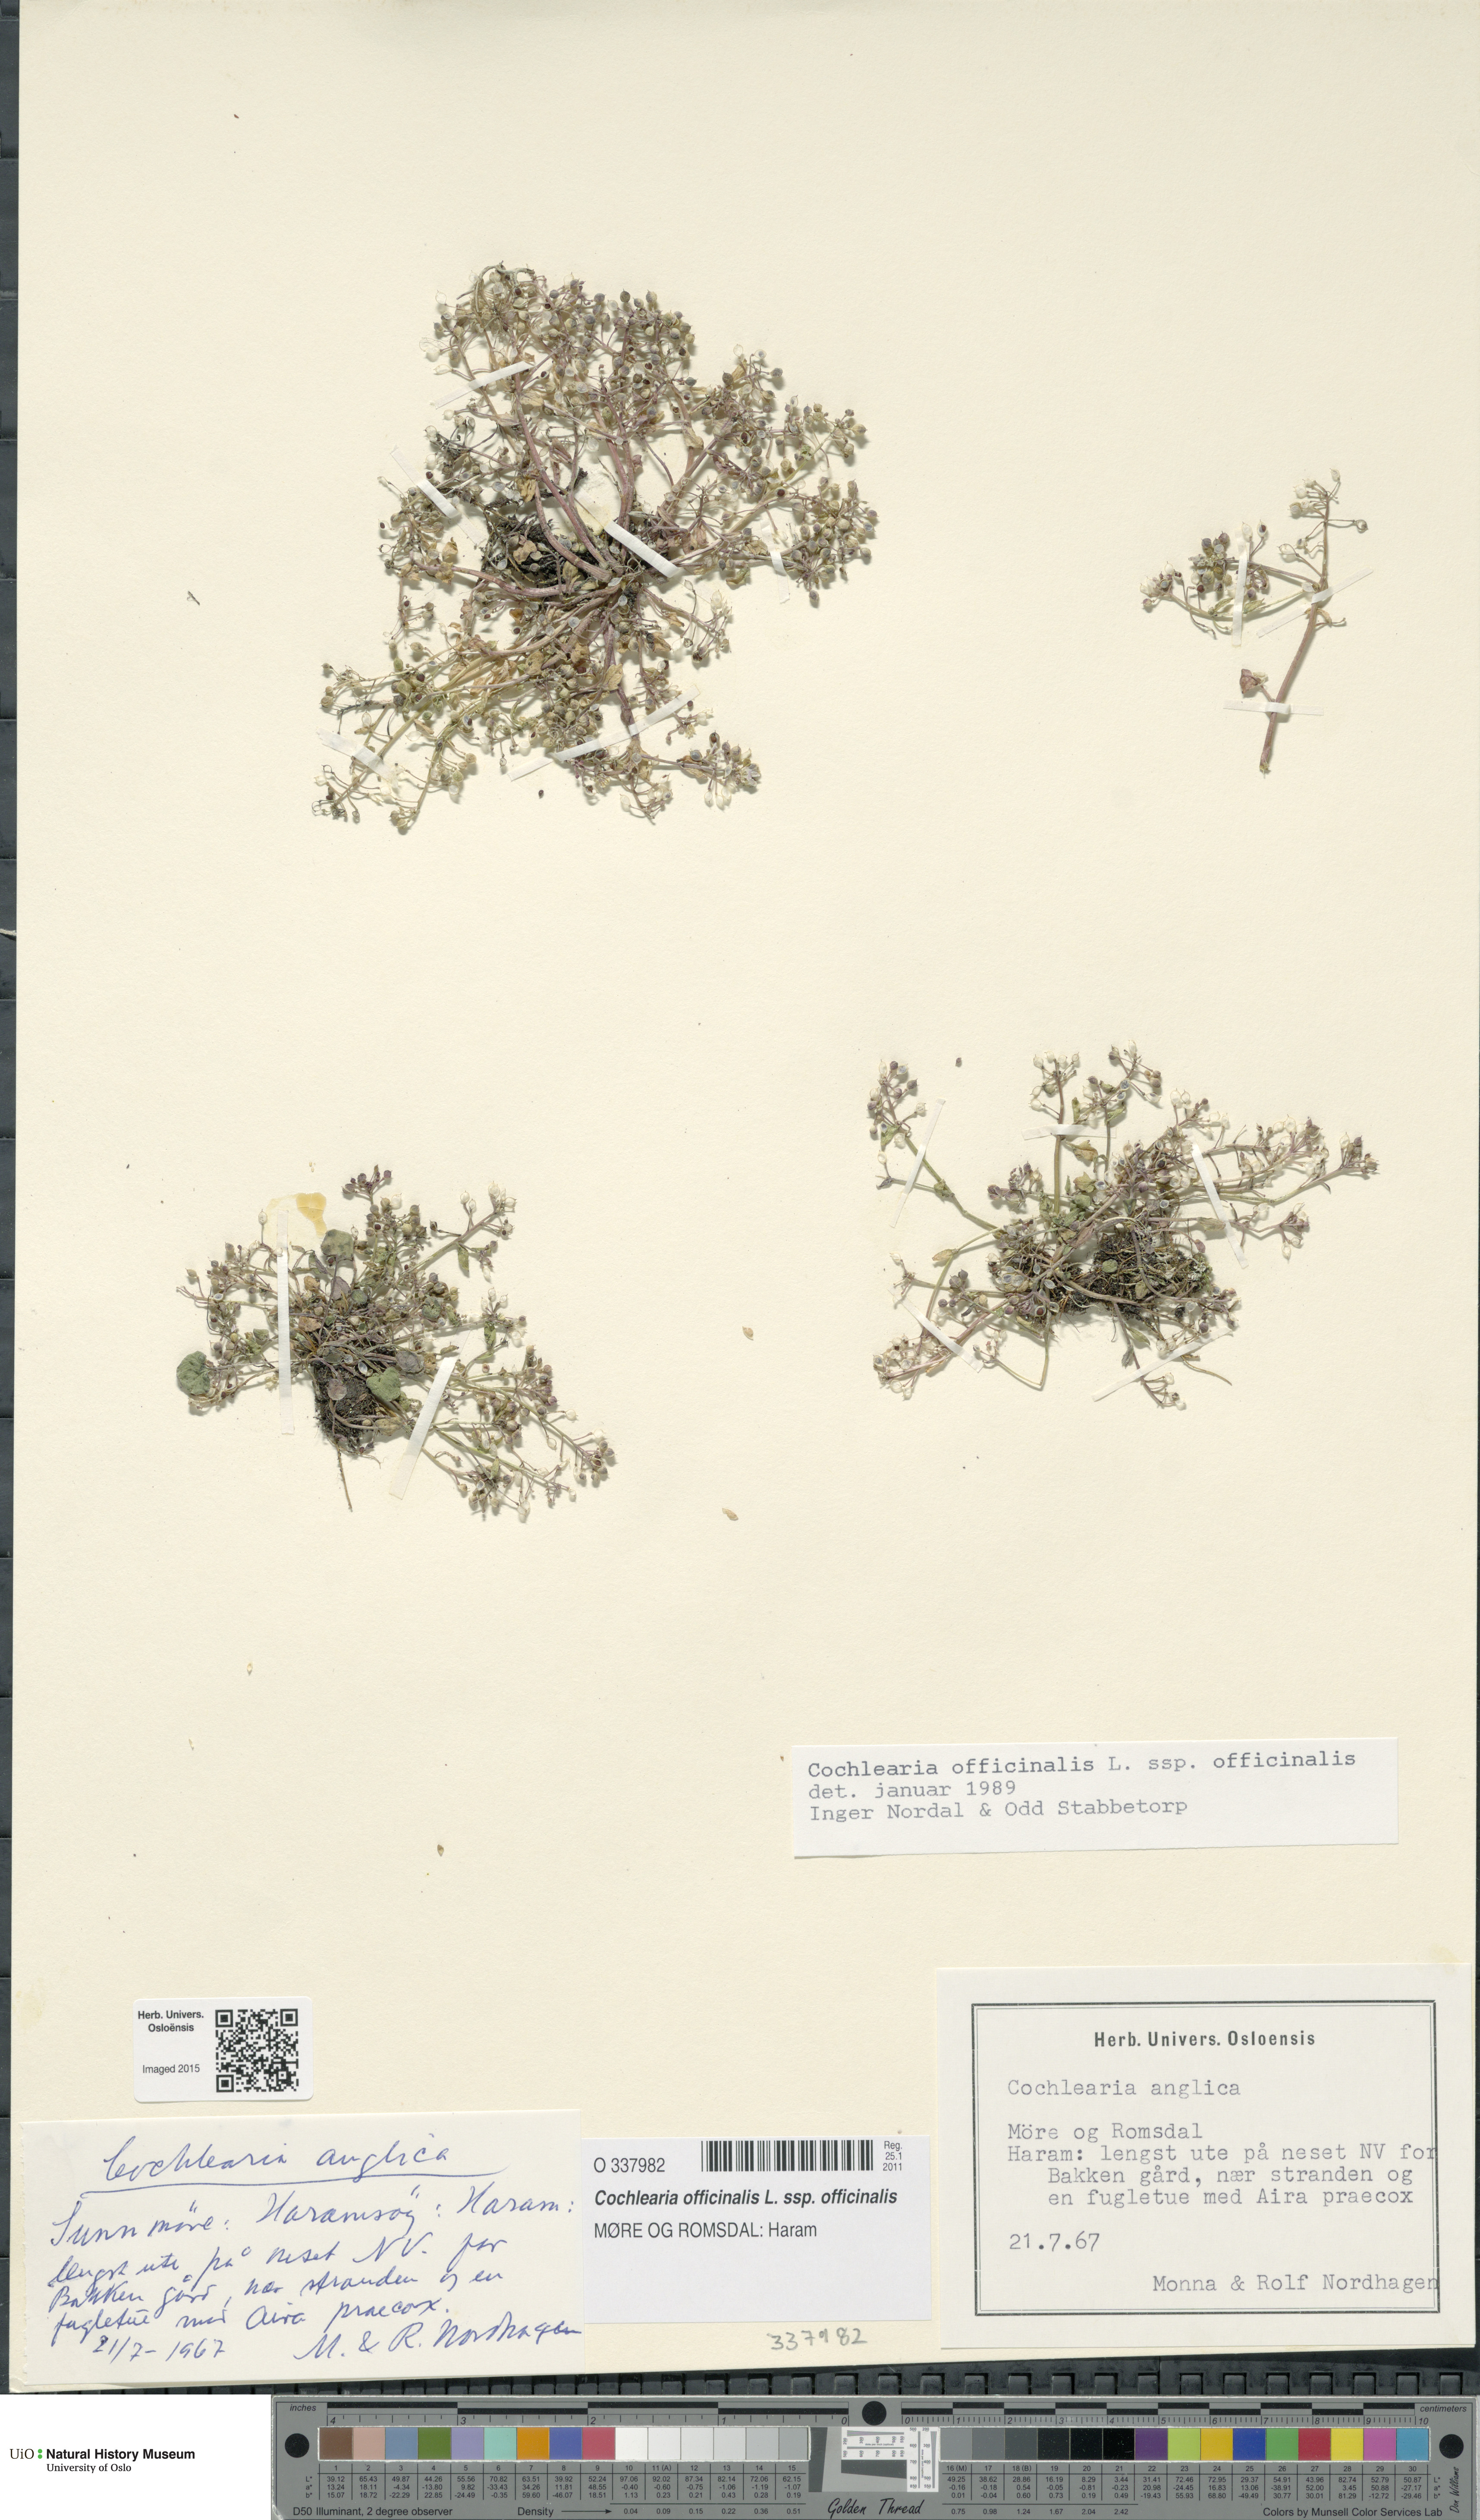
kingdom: Plantae
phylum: Tracheophyta
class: Magnoliopsida
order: Brassicales
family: Brassicaceae
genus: Cochlearia
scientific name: Cochlearia officinalis
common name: Scurvy-grass
